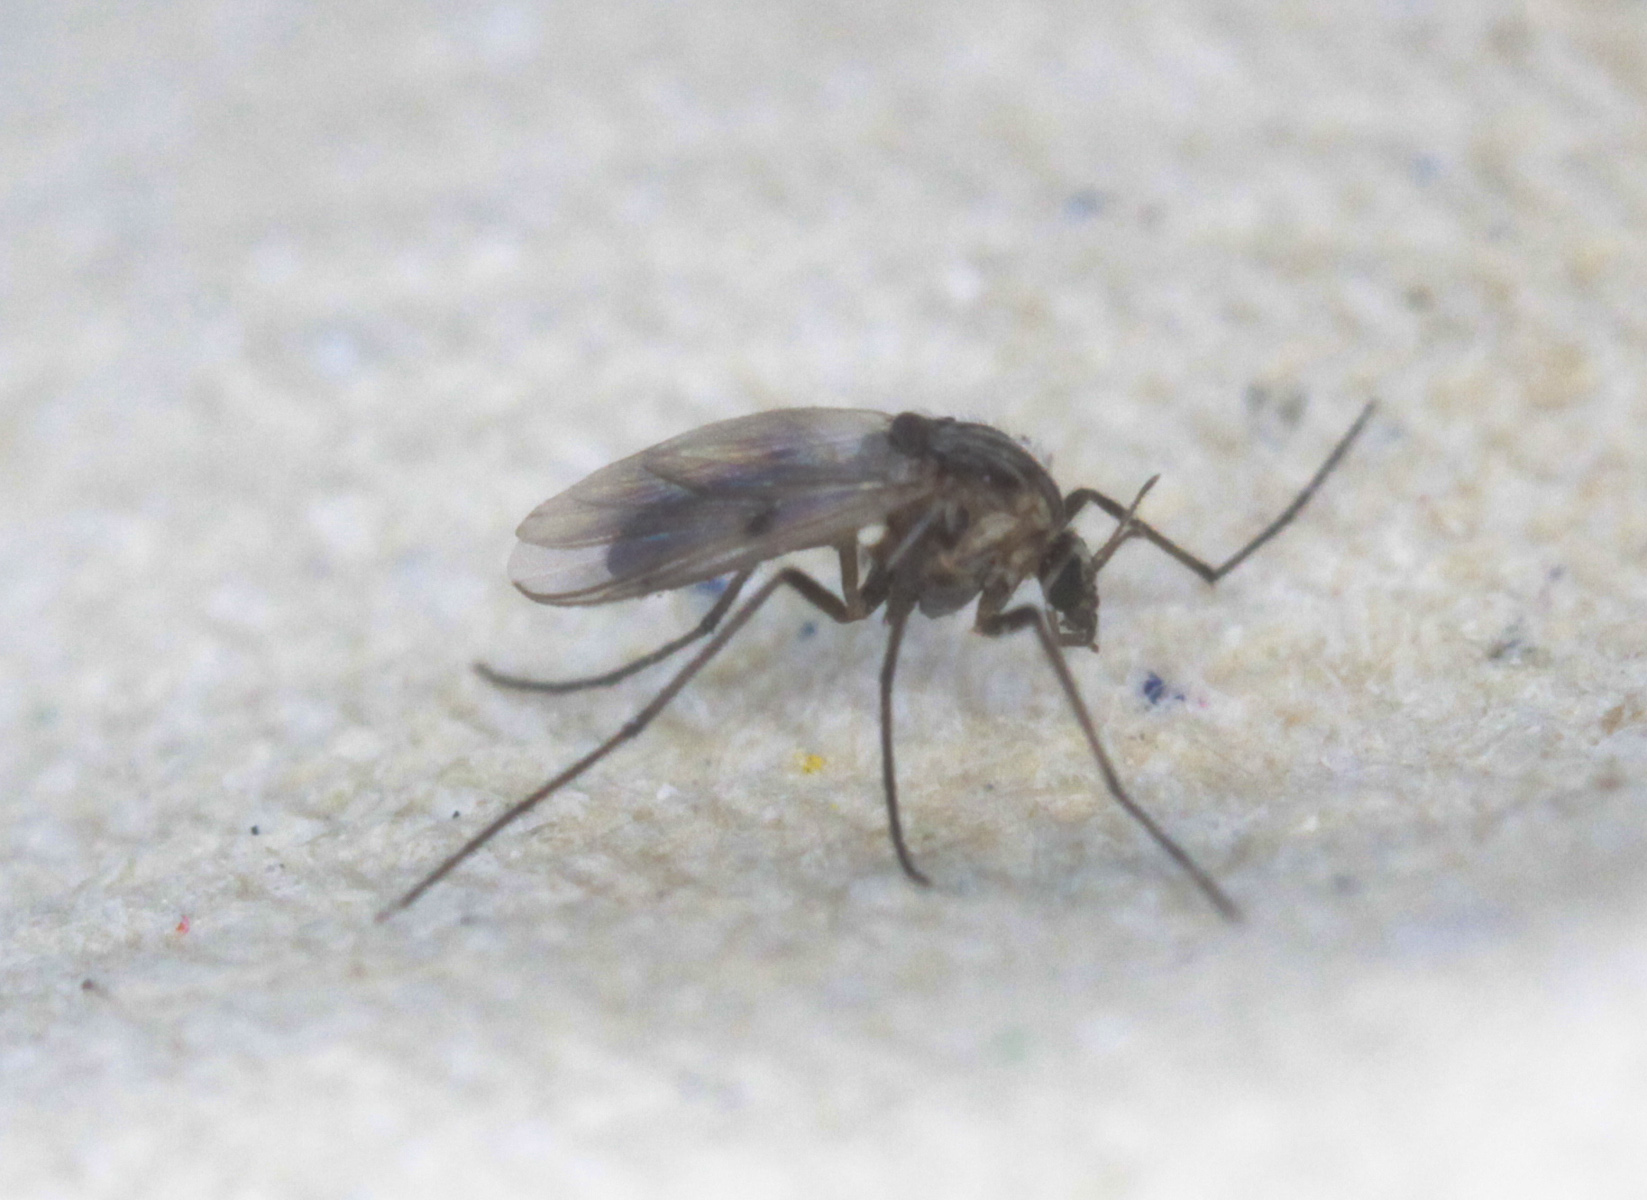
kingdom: Animalia
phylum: Arthropoda
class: Insecta
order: Diptera
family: Mycetophilidae
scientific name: Mycetophilidae
